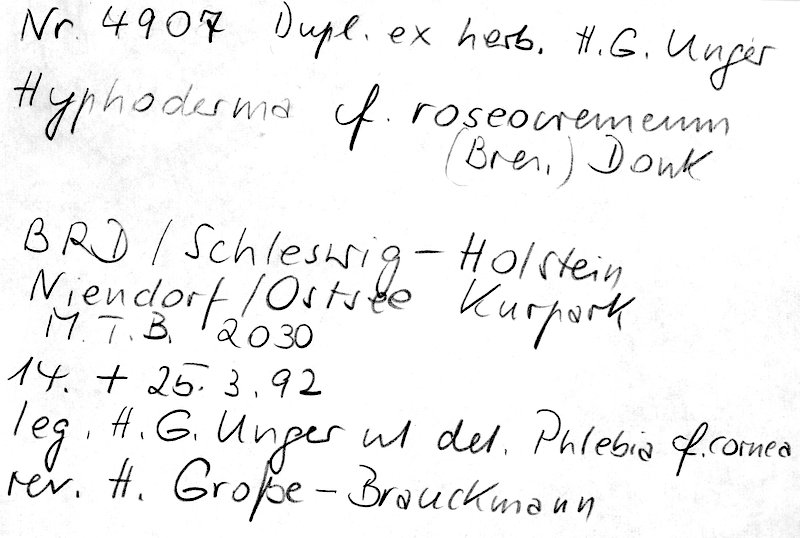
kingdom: Fungi
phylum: Basidiomycota
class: Agaricomycetes
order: Polyporales
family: Hyphodermataceae
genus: Hyphoderma
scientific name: Hyphoderma roseocremeum
